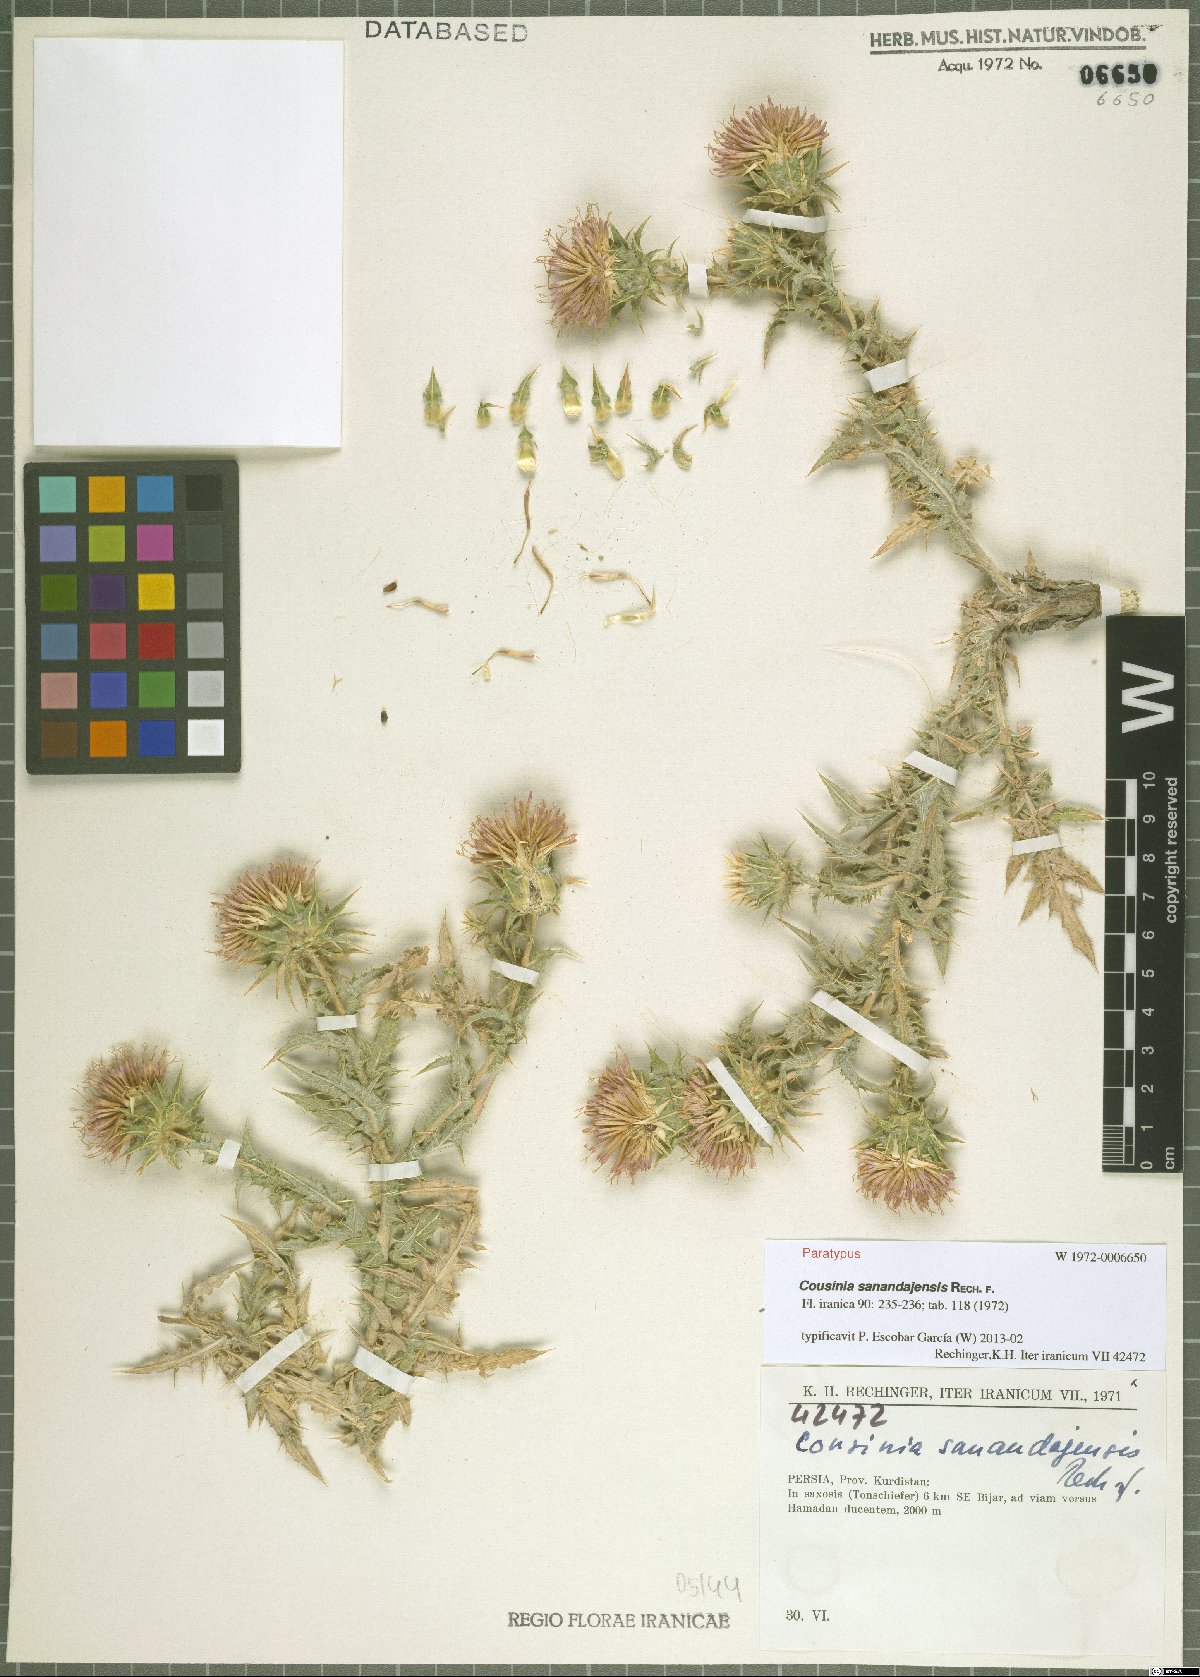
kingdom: Plantae
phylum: Tracheophyta
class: Magnoliopsida
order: Asterales
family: Asteraceae
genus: Cousinia
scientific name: Cousinia sanandajensis
